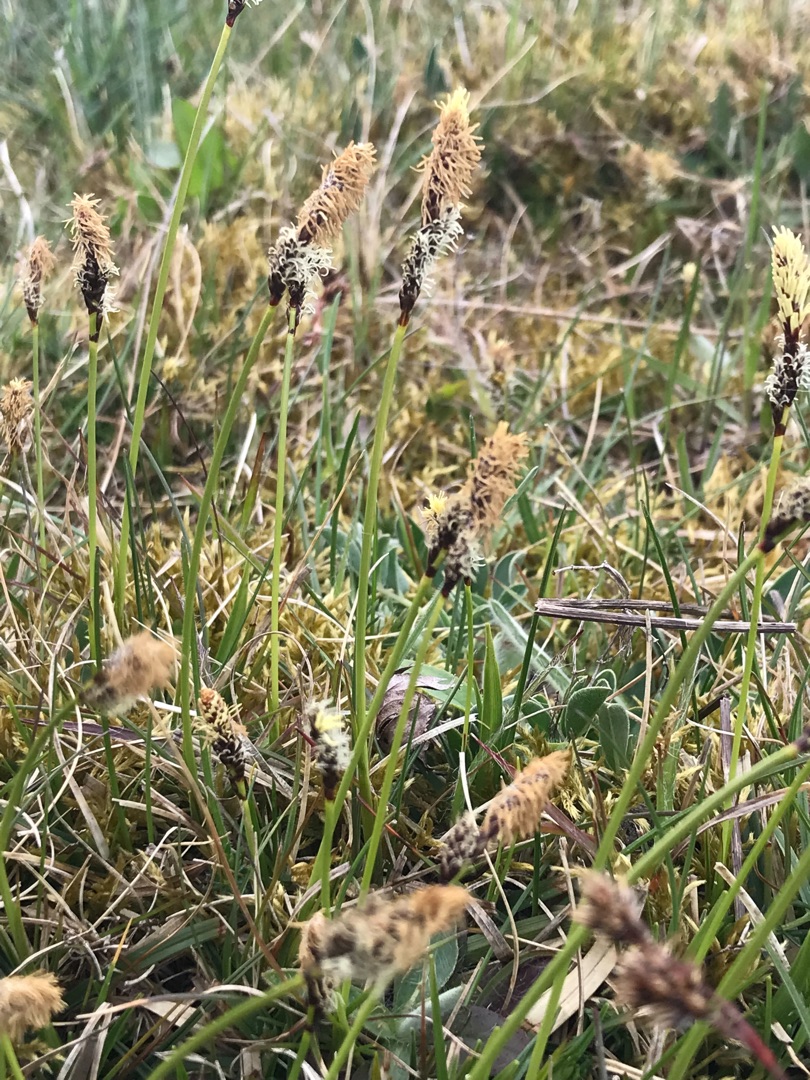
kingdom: Plantae
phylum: Tracheophyta
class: Liliopsida
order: Poales
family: Cyperaceae
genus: Carex
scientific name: Carex ericetorum
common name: Lyng-star
